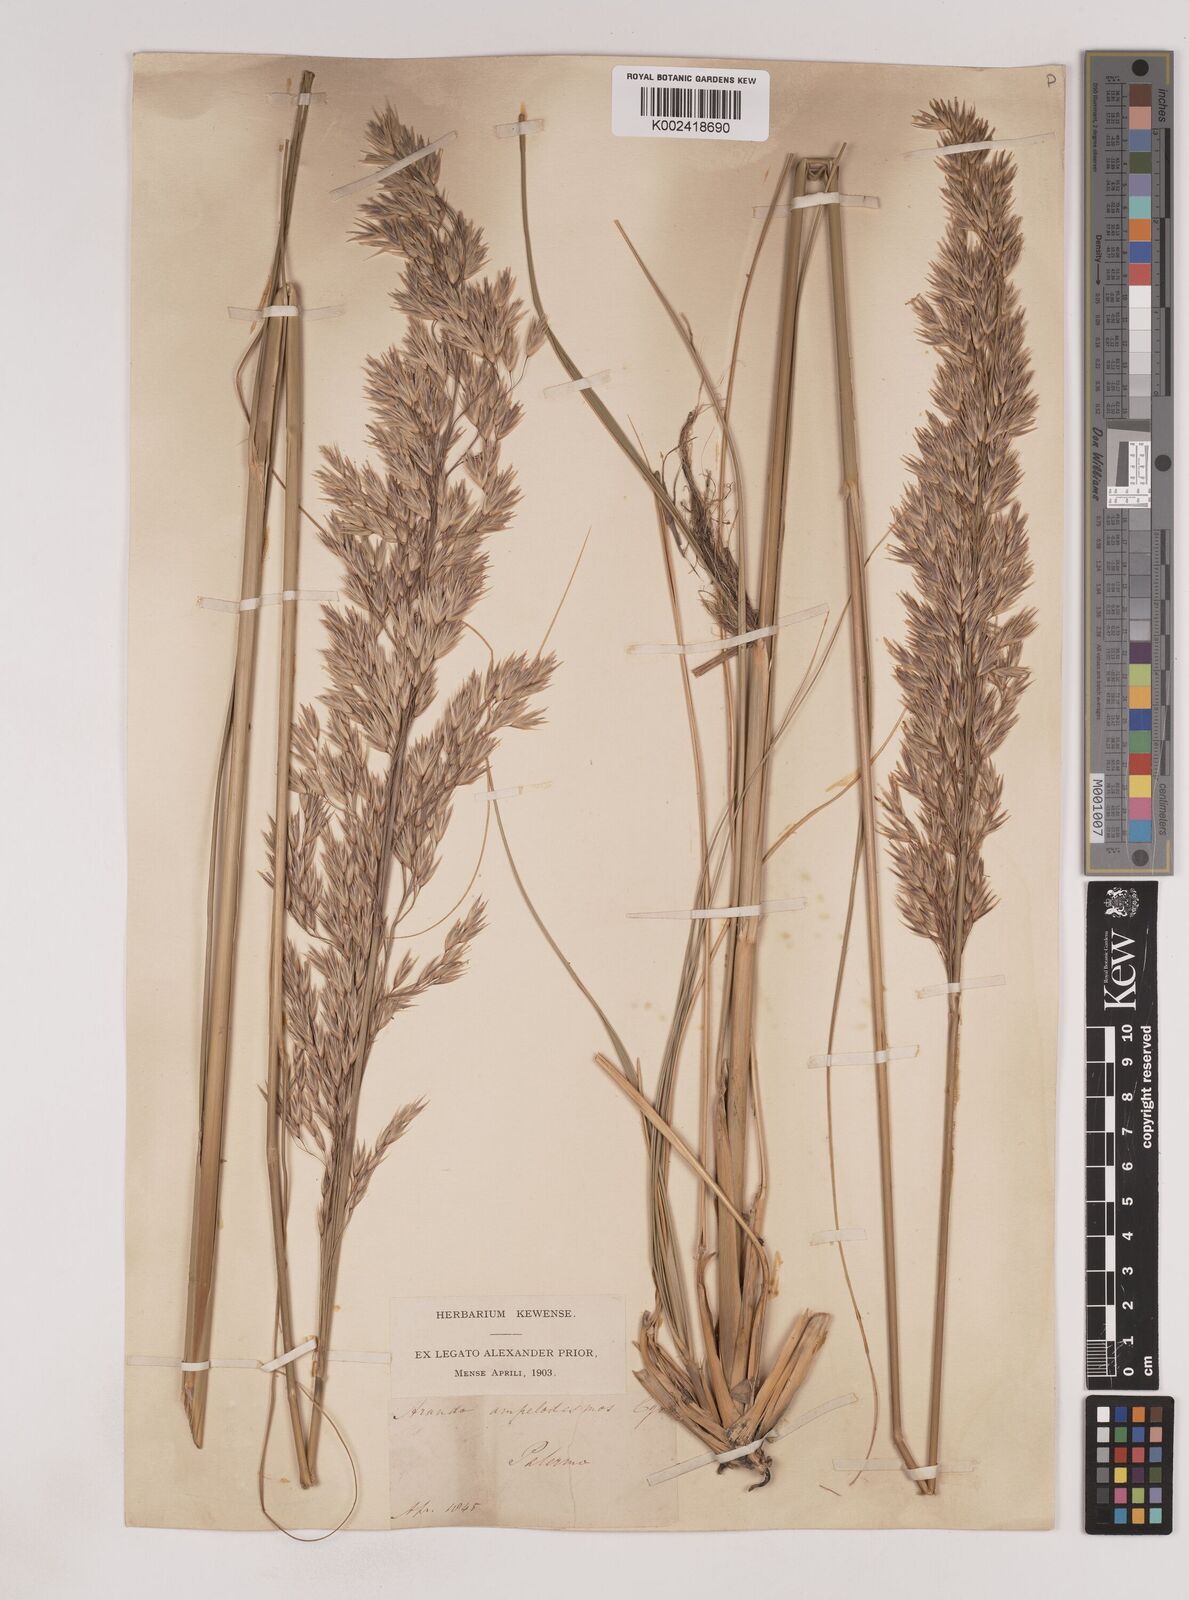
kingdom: Plantae
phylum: Tracheophyta
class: Liliopsida
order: Poales
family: Poaceae
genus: Ampelodesmos
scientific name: Ampelodesmos mauritanicus
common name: Mauritanian grass
